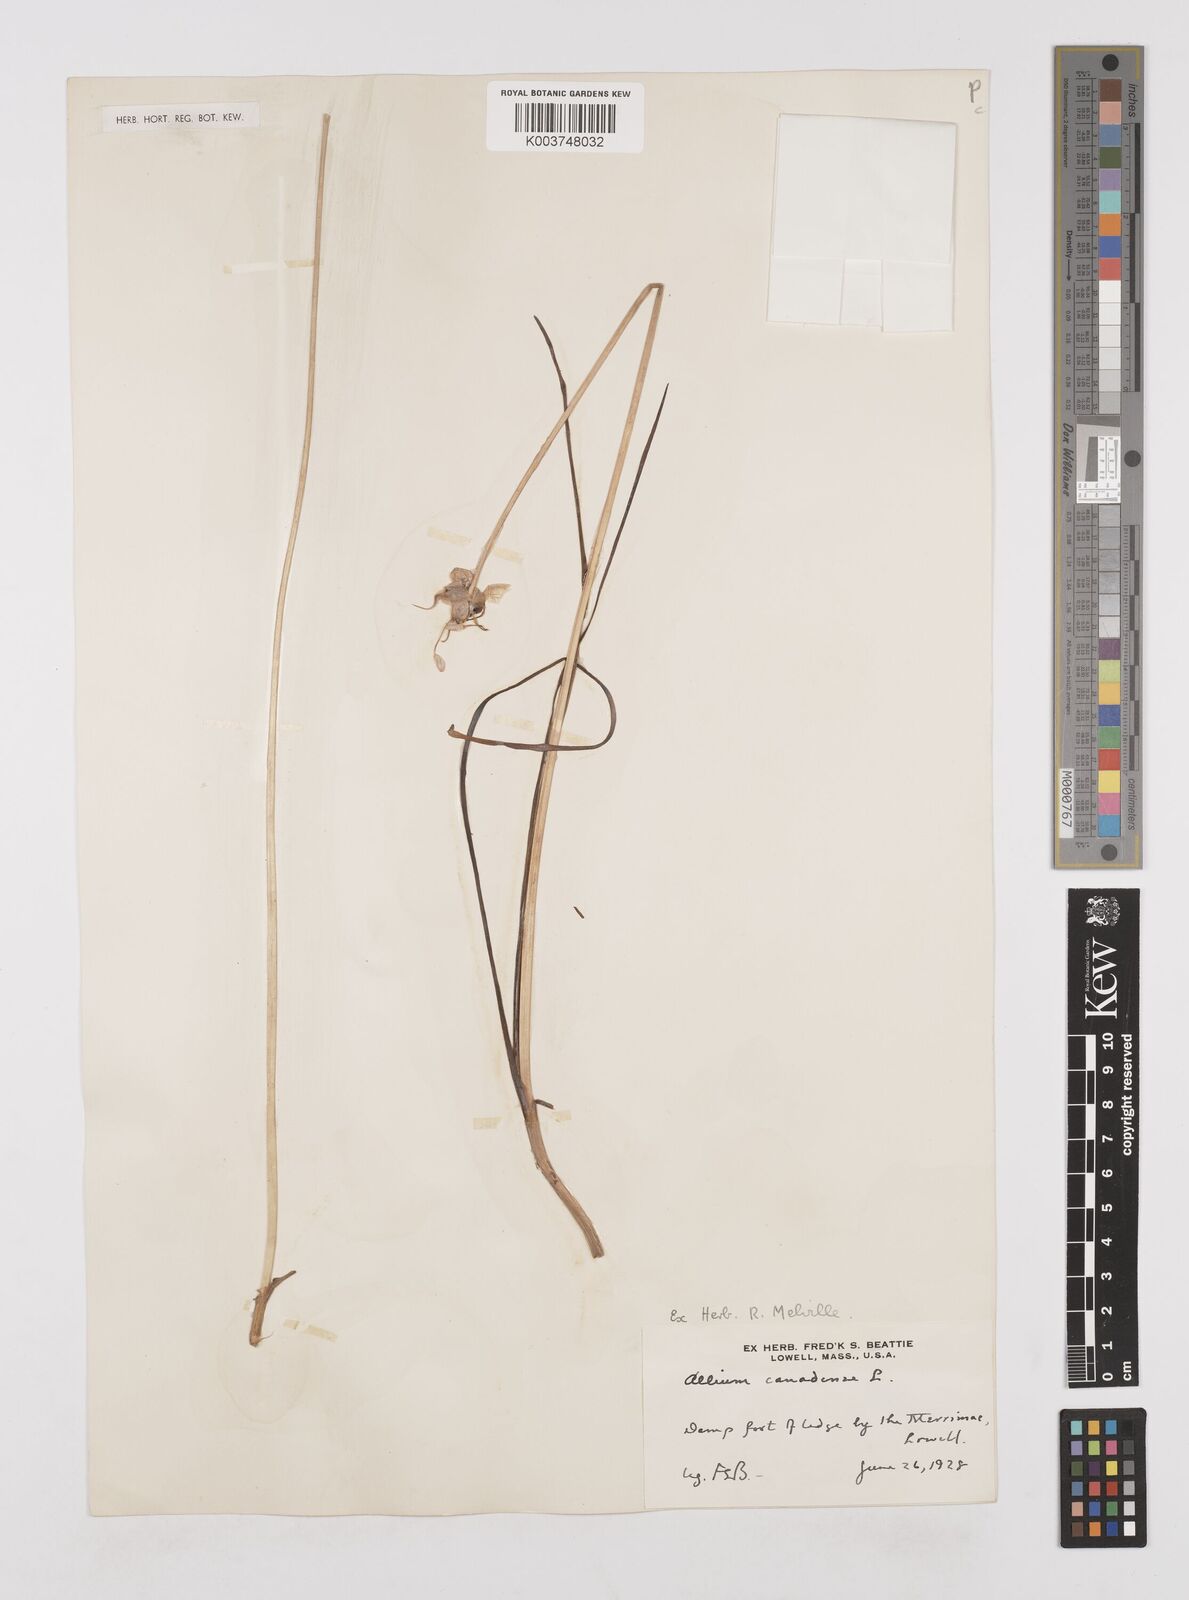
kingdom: Plantae
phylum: Tracheophyta
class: Liliopsida
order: Asparagales
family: Amaryllidaceae
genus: Allium
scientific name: Allium canadense
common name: Meadow garlic
